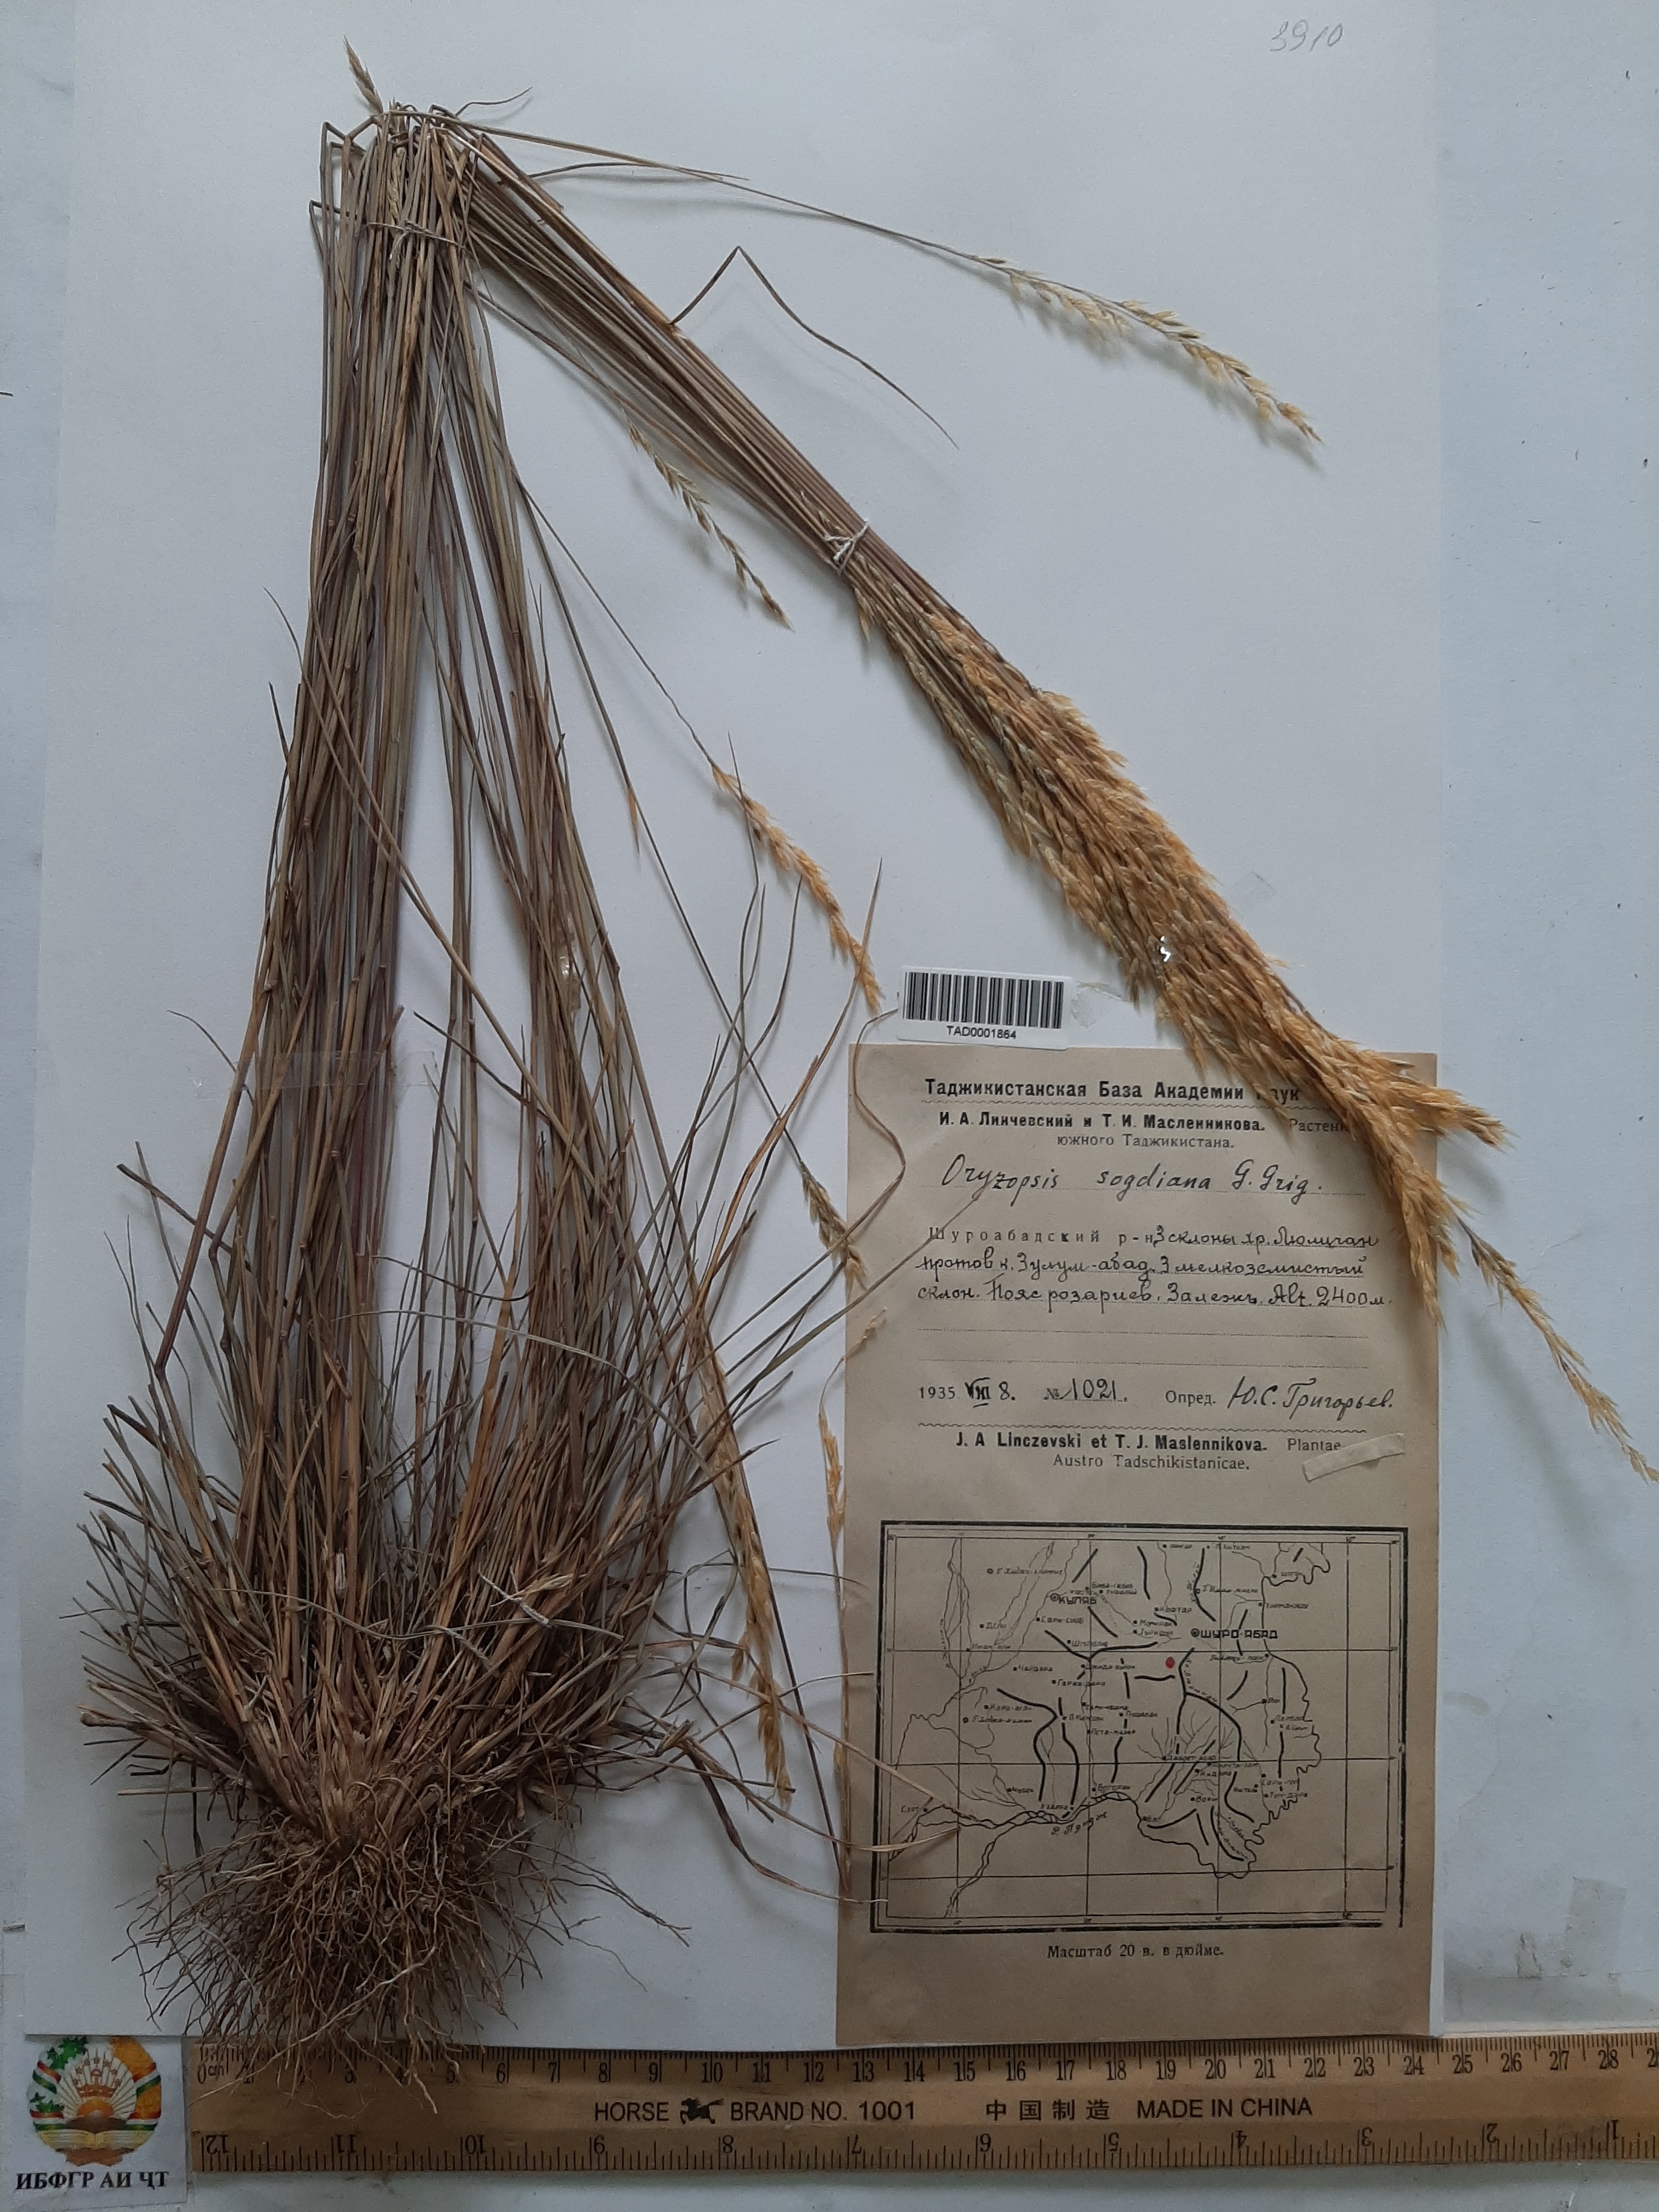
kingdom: Plantae
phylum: Tracheophyta
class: Liliopsida
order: Poales
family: Poaceae
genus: Piptatherum
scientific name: Piptatherum sogdianum
